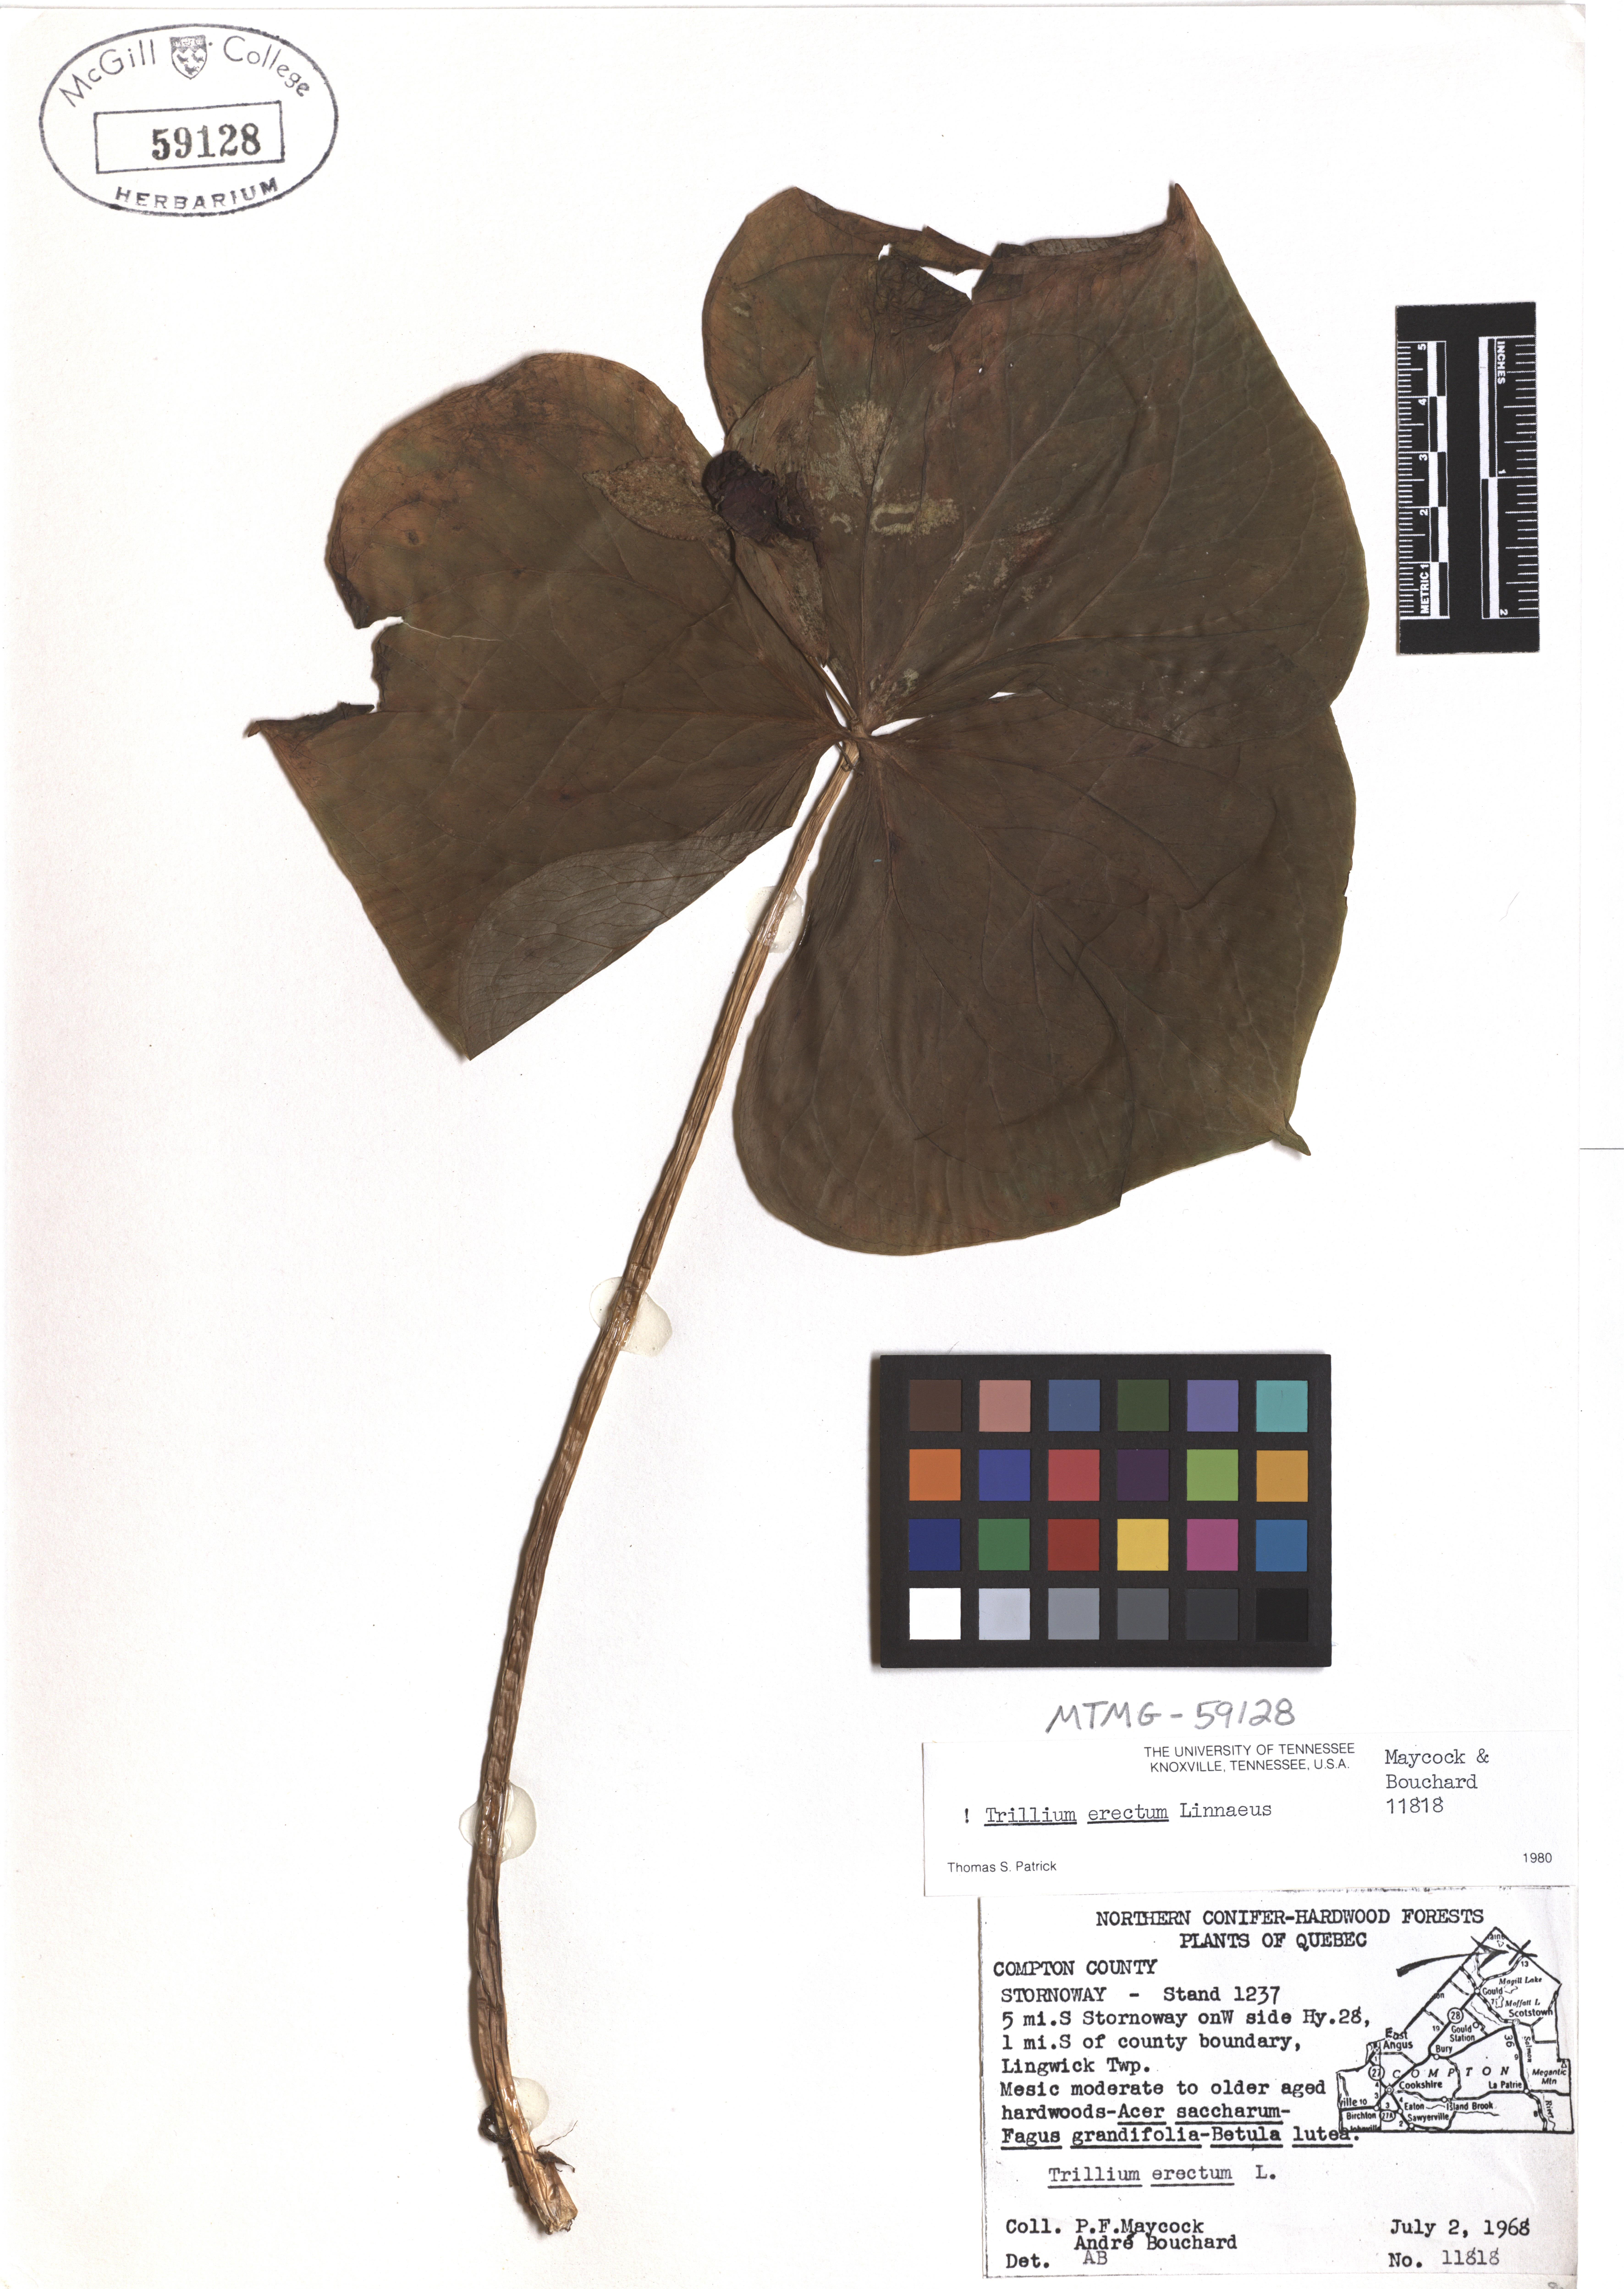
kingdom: Plantae
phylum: Tracheophyta
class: Liliopsida
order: Liliales
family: Melanthiaceae
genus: Trillium
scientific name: Trillium erectum
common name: Purple trillium
